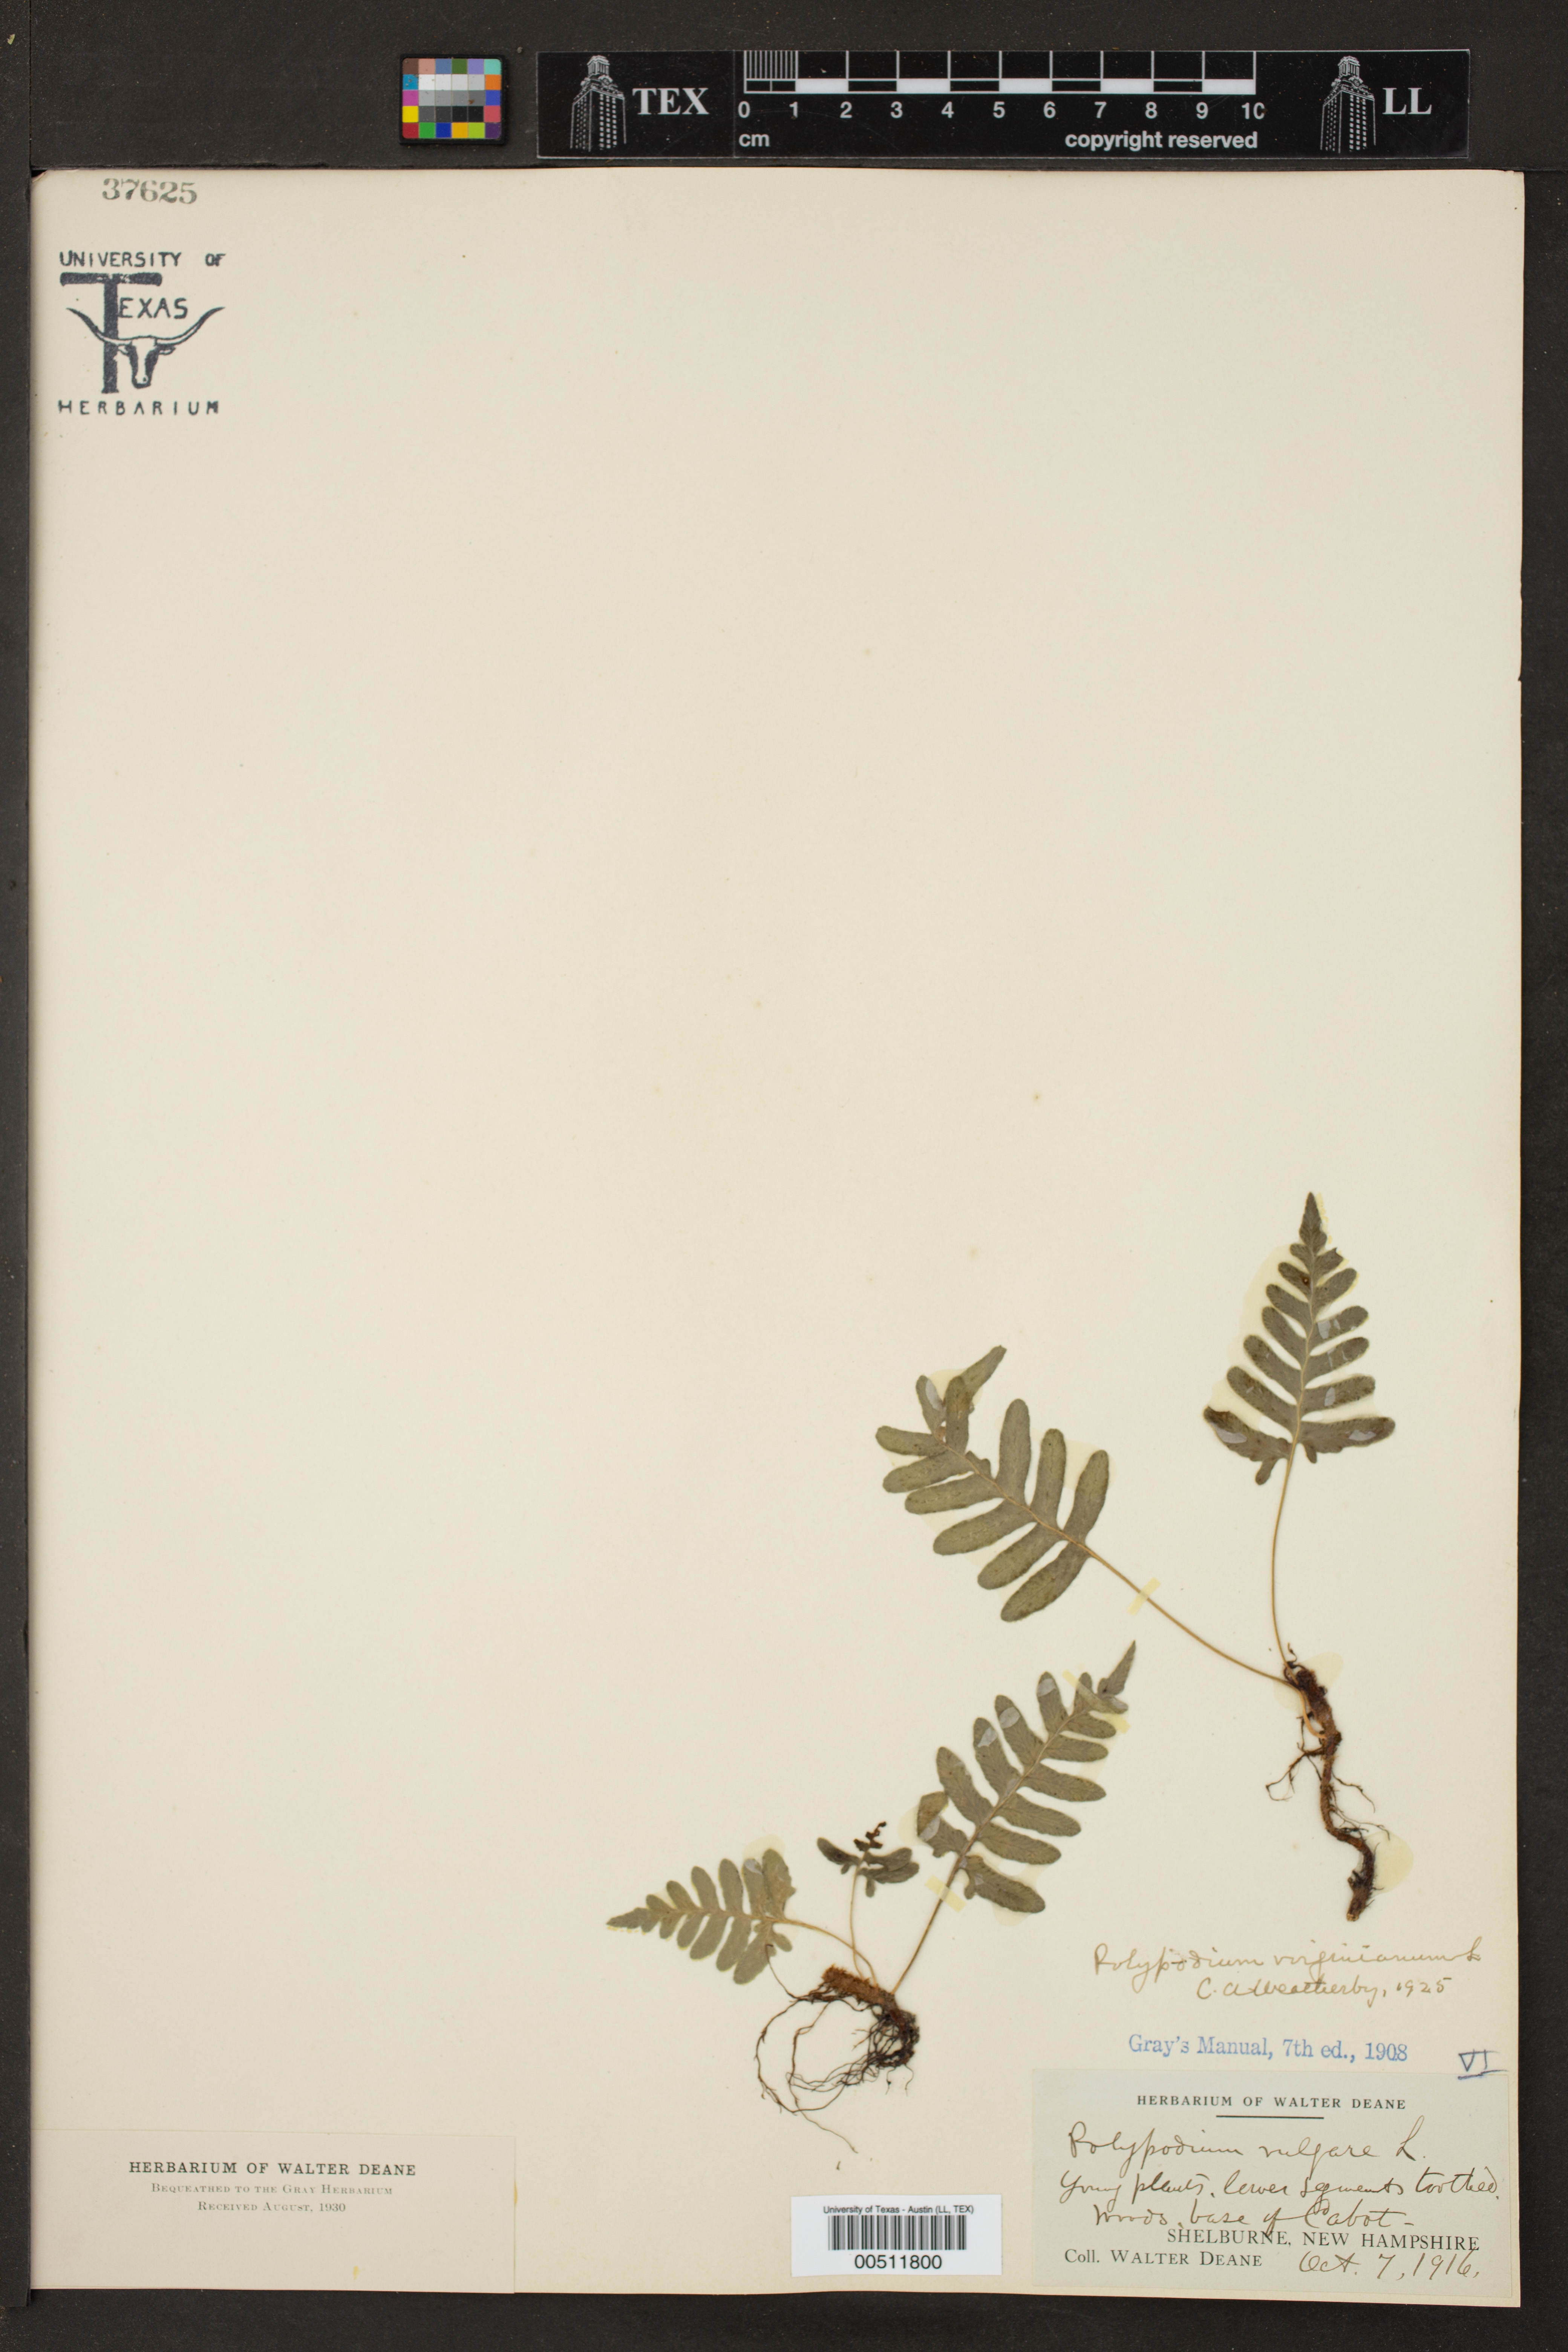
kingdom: Plantae
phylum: Tracheophyta
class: Polypodiopsida
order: Polypodiales
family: Polypodiaceae
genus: Polypodium
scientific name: Polypodium virginianum
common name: American wall fern
